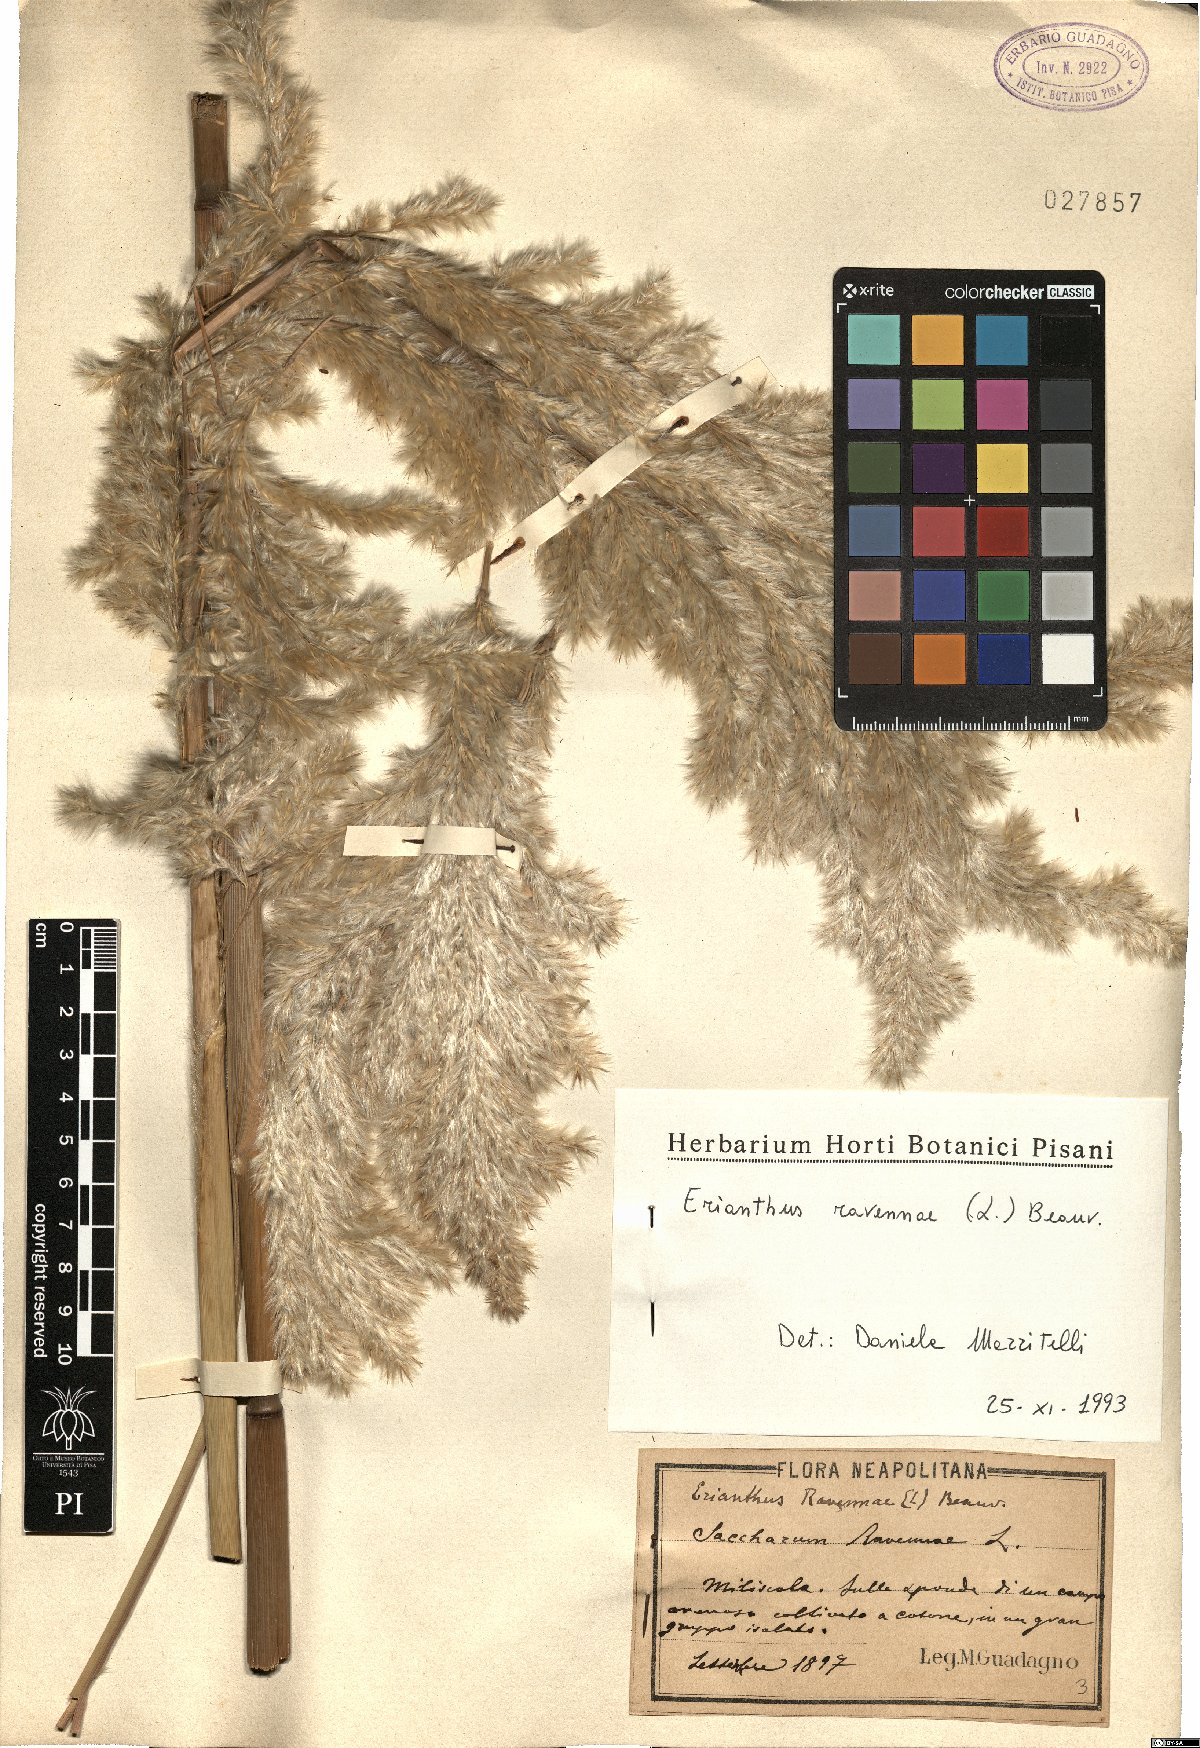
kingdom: Plantae
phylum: Tracheophyta
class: Liliopsida
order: Poales
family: Poaceae
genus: Tripidium
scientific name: Tripidium ravennae
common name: Ravenna grass
